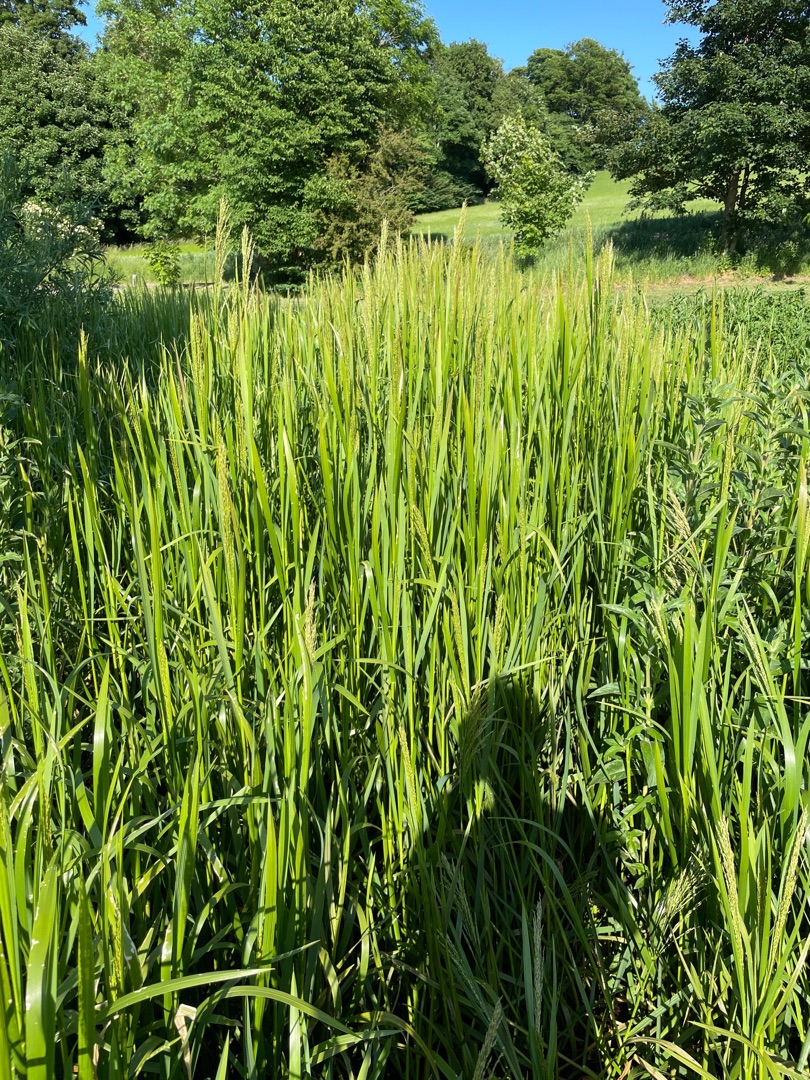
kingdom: Plantae
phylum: Tracheophyta
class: Liliopsida
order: Poales
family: Poaceae
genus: Glyceria
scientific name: Glyceria maxima
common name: Høj sødgræs
